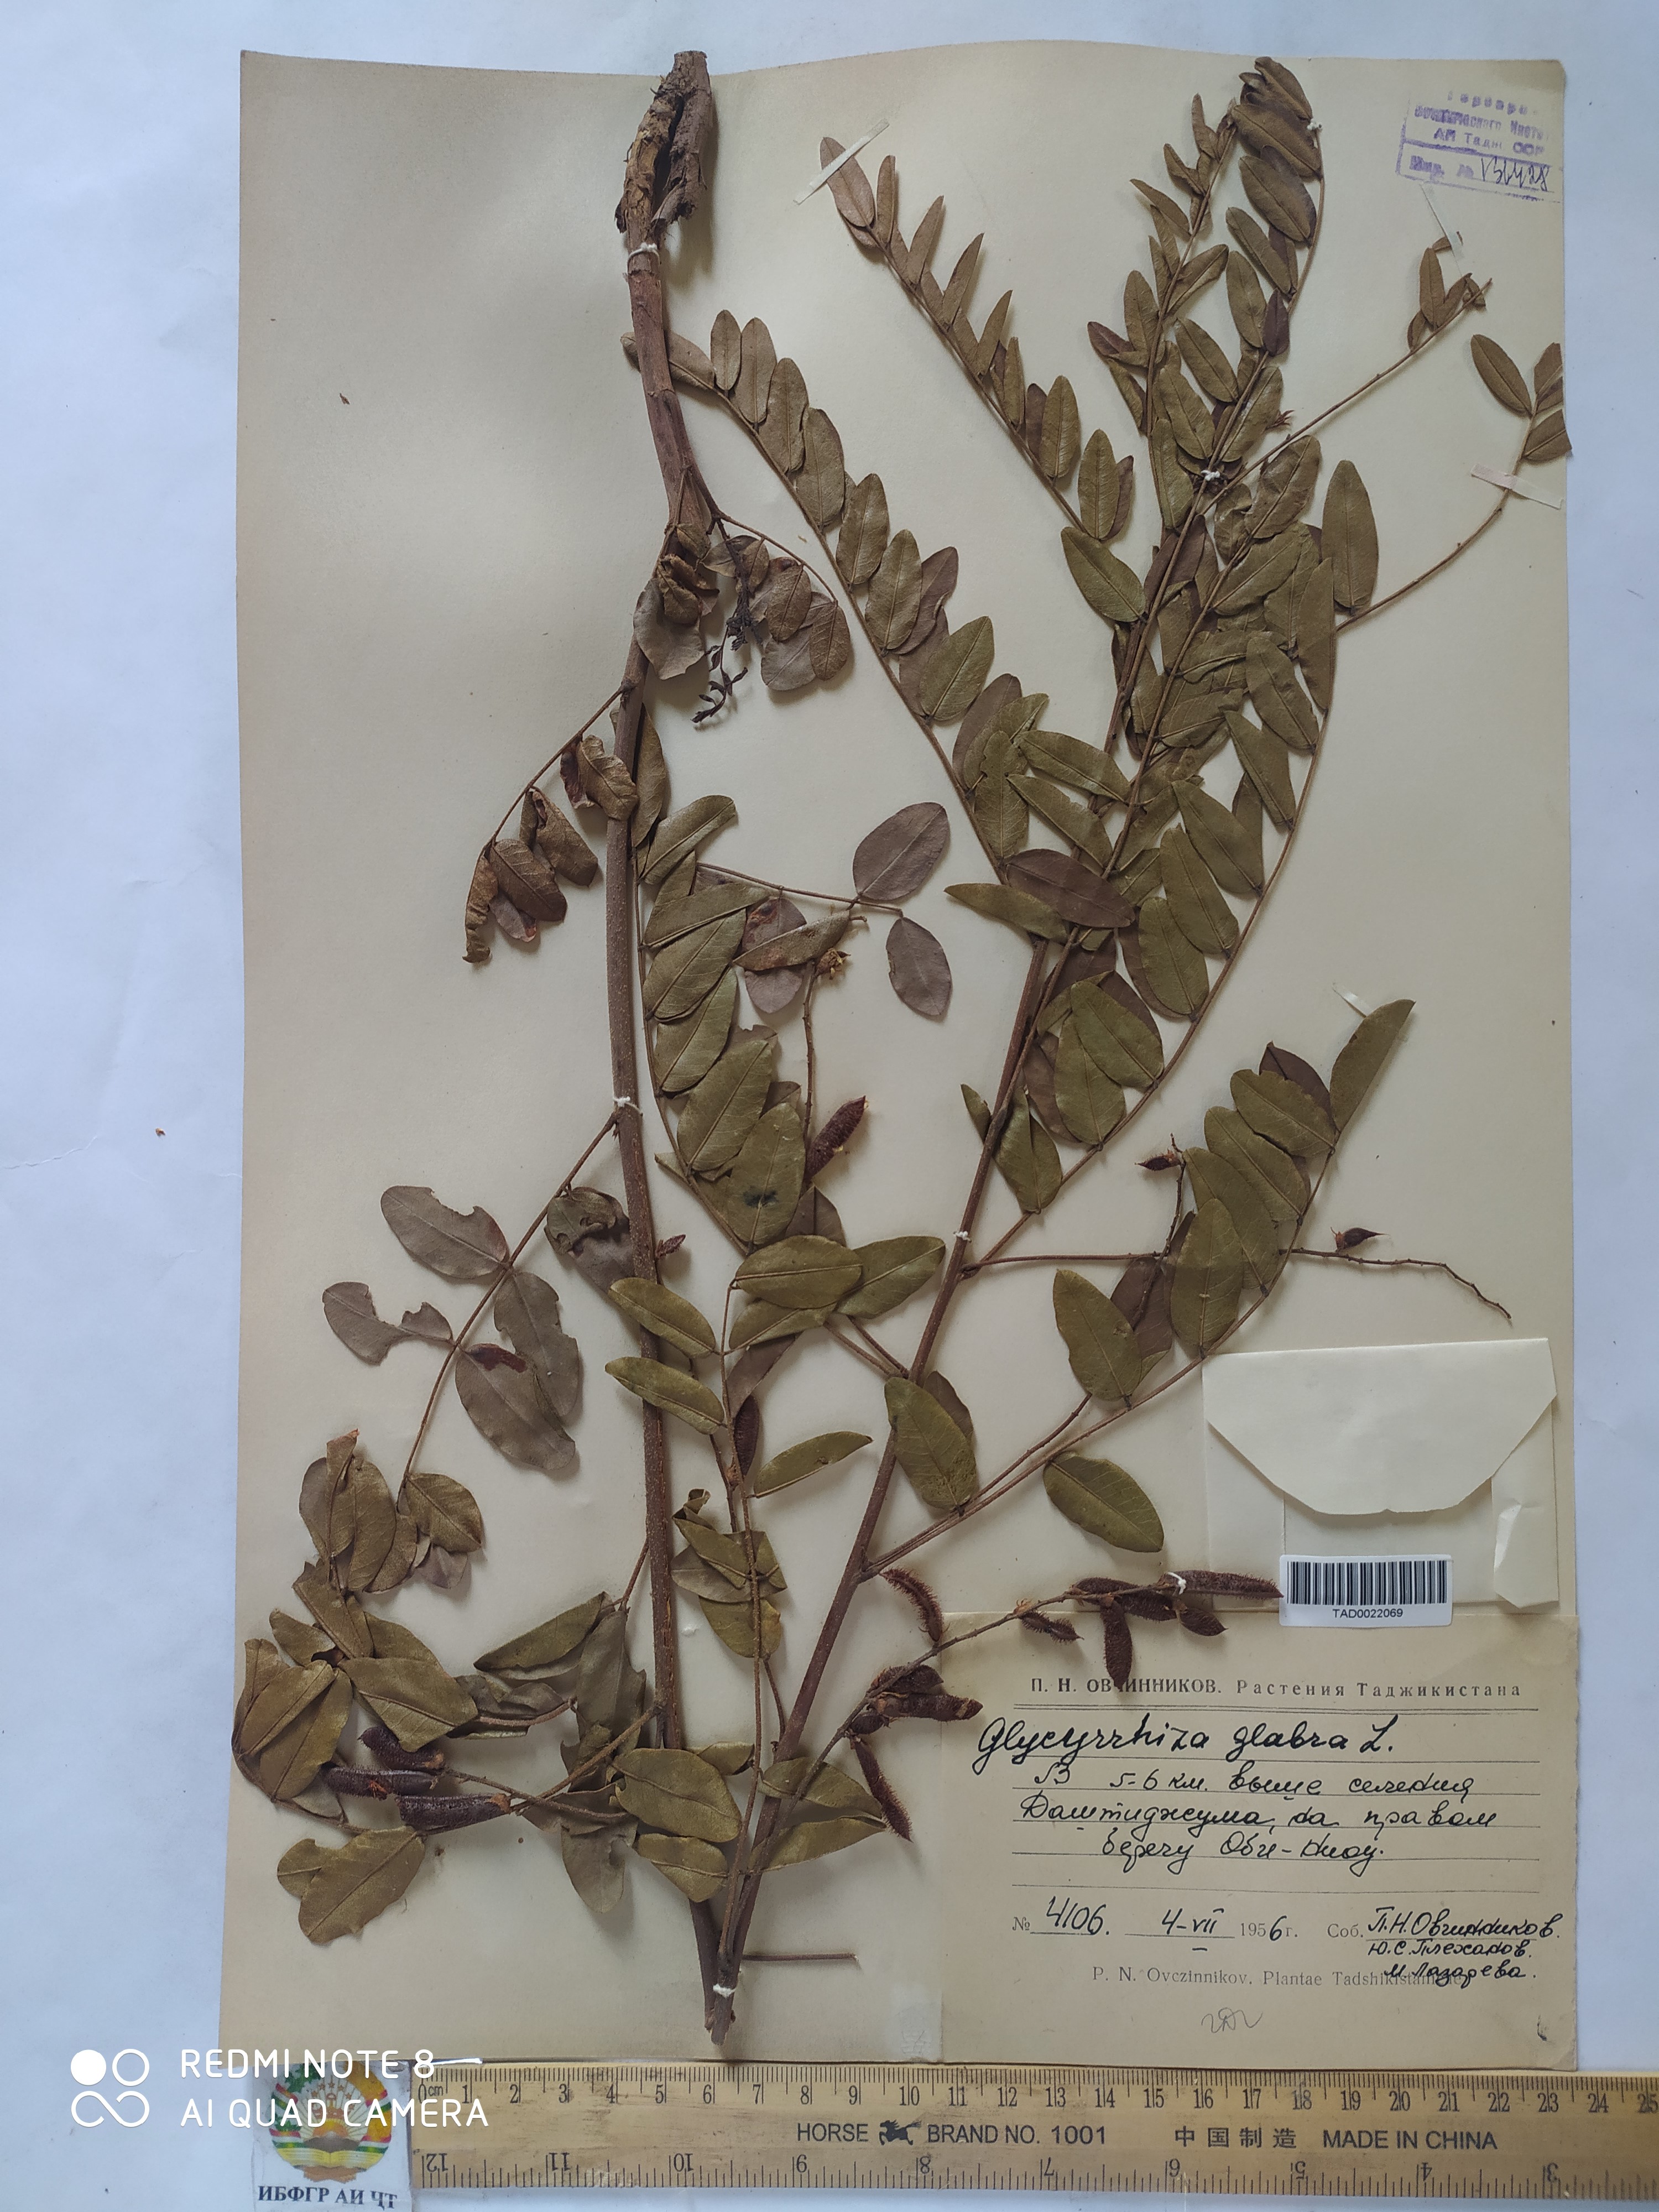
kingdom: Plantae
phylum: Tracheophyta
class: Magnoliopsida
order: Fabales
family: Fabaceae
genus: Glycyrrhiza
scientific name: Glycyrrhiza glabra
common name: Liquorice
